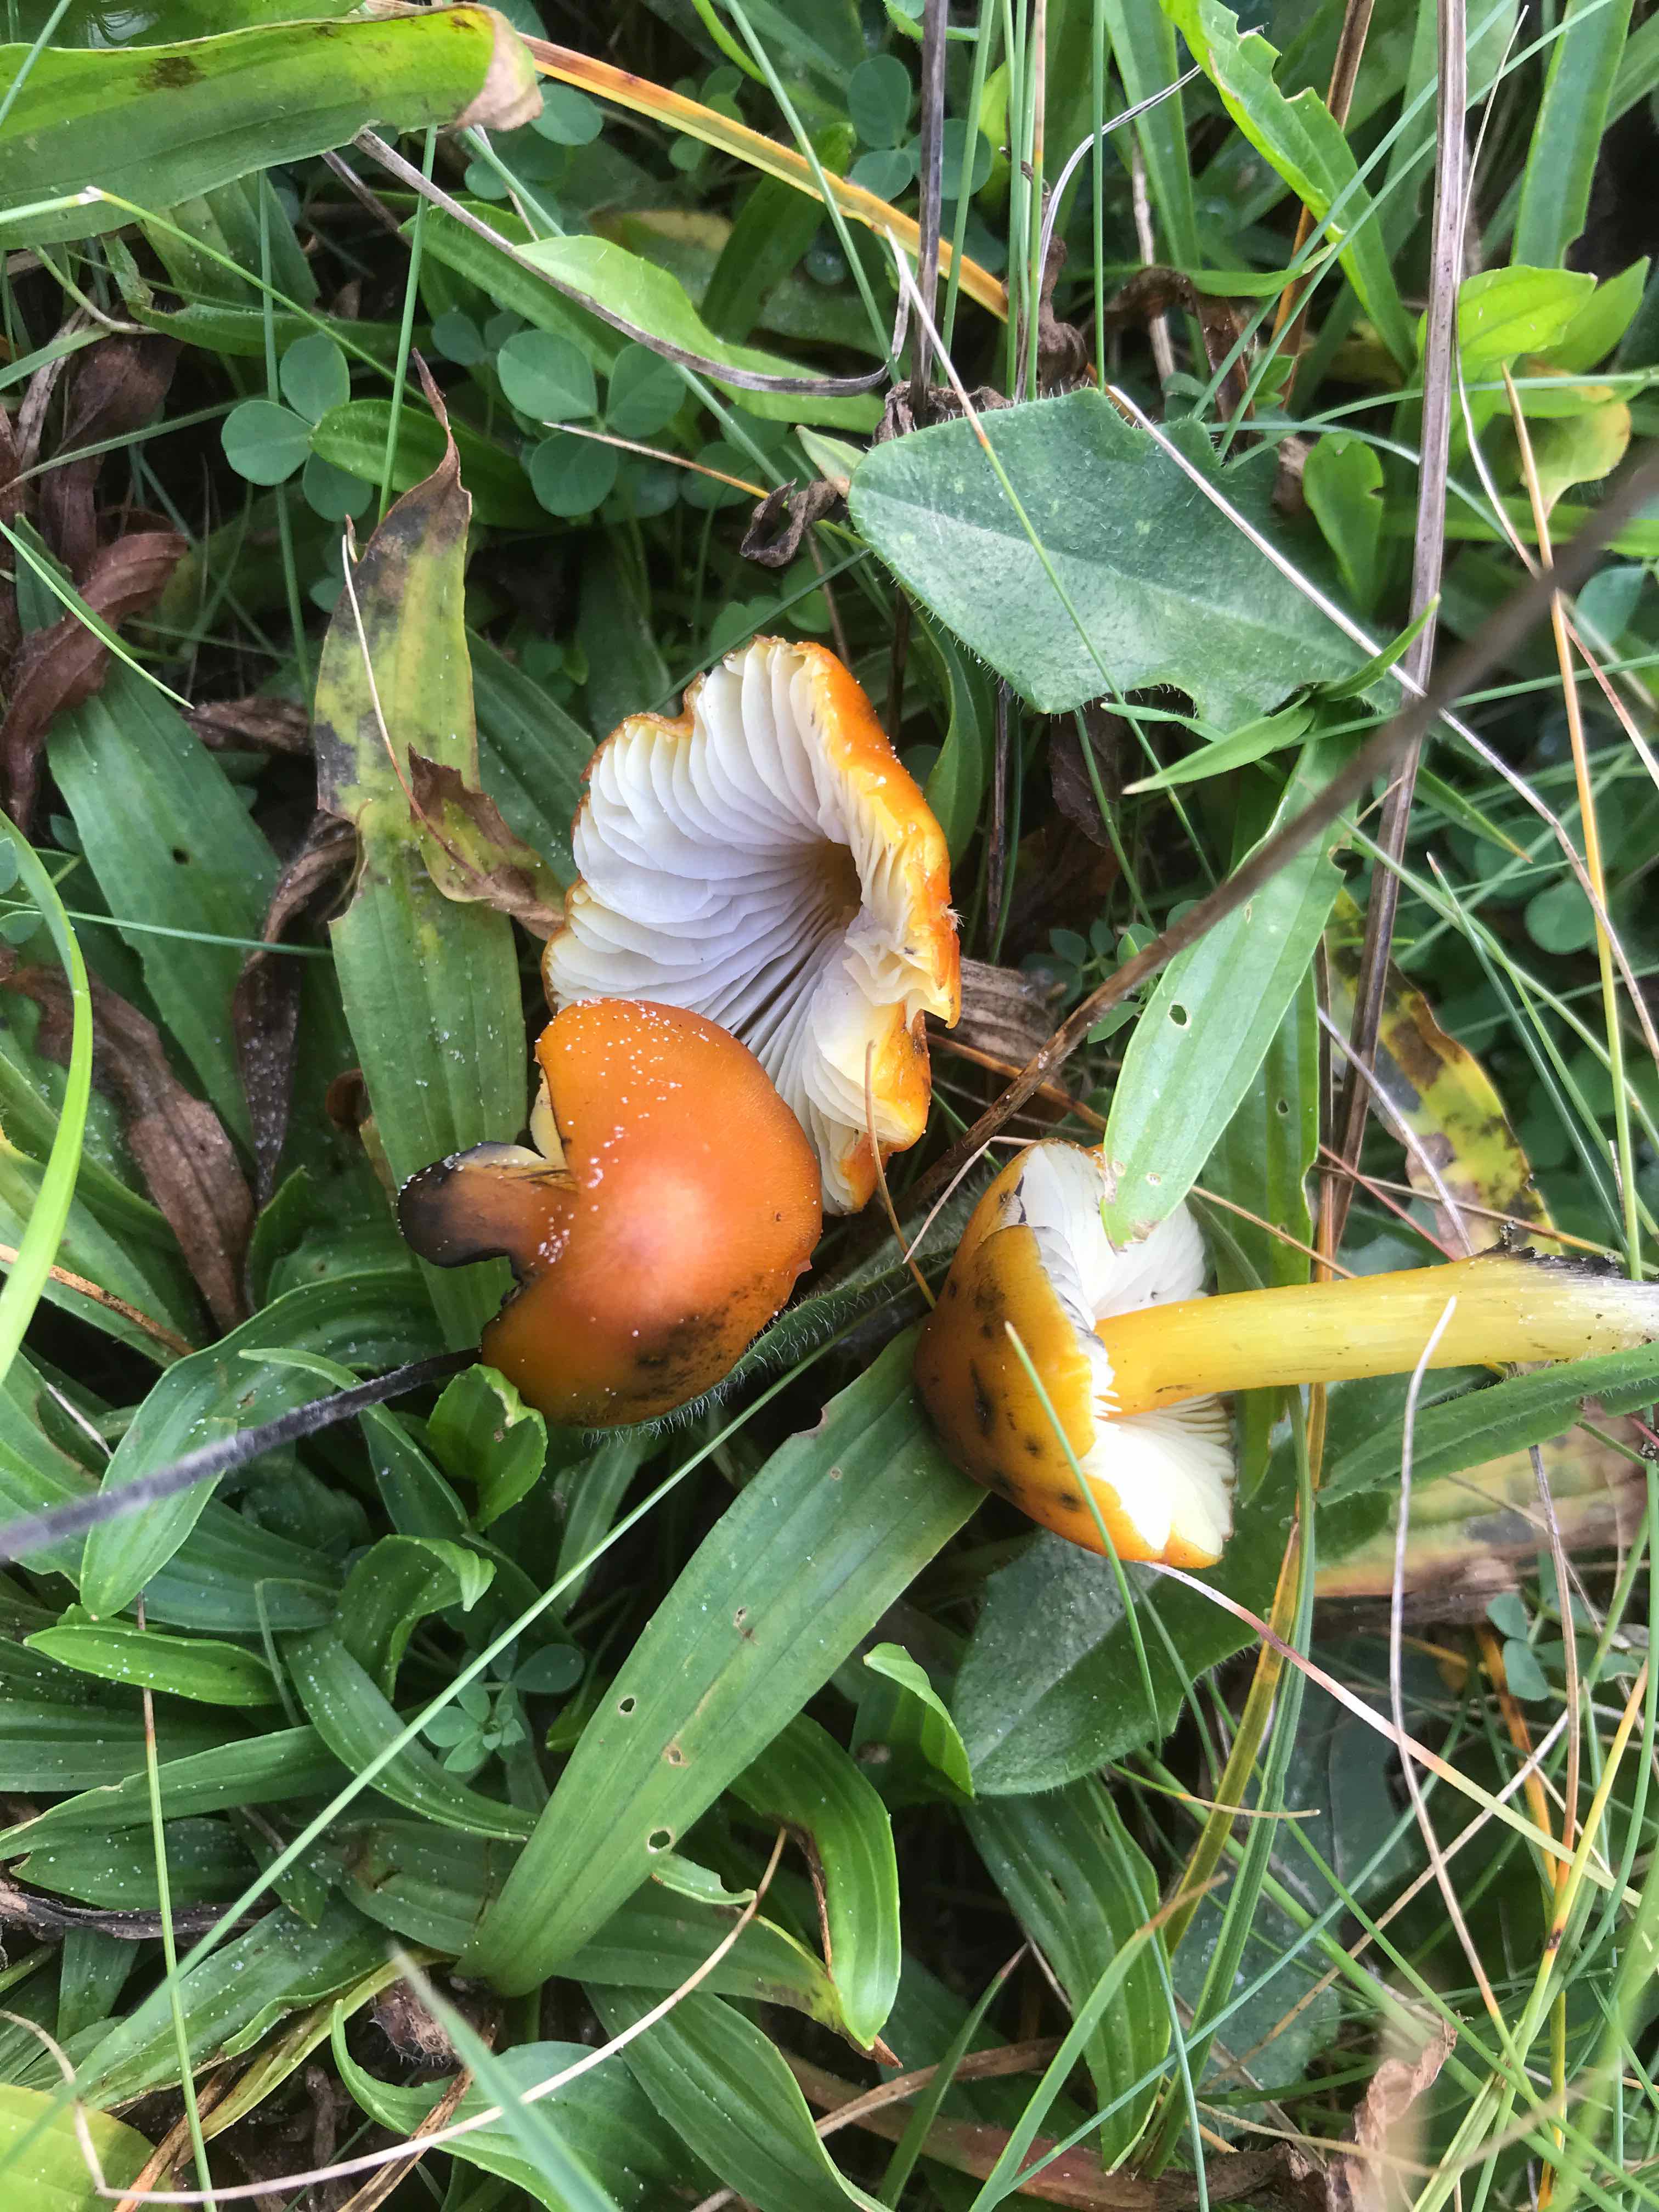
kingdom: Fungi
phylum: Basidiomycota
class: Agaricomycetes
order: Agaricales
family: Hygrophoraceae
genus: Hygrocybe
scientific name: Hygrocybe conica
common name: kegle-vokshat
